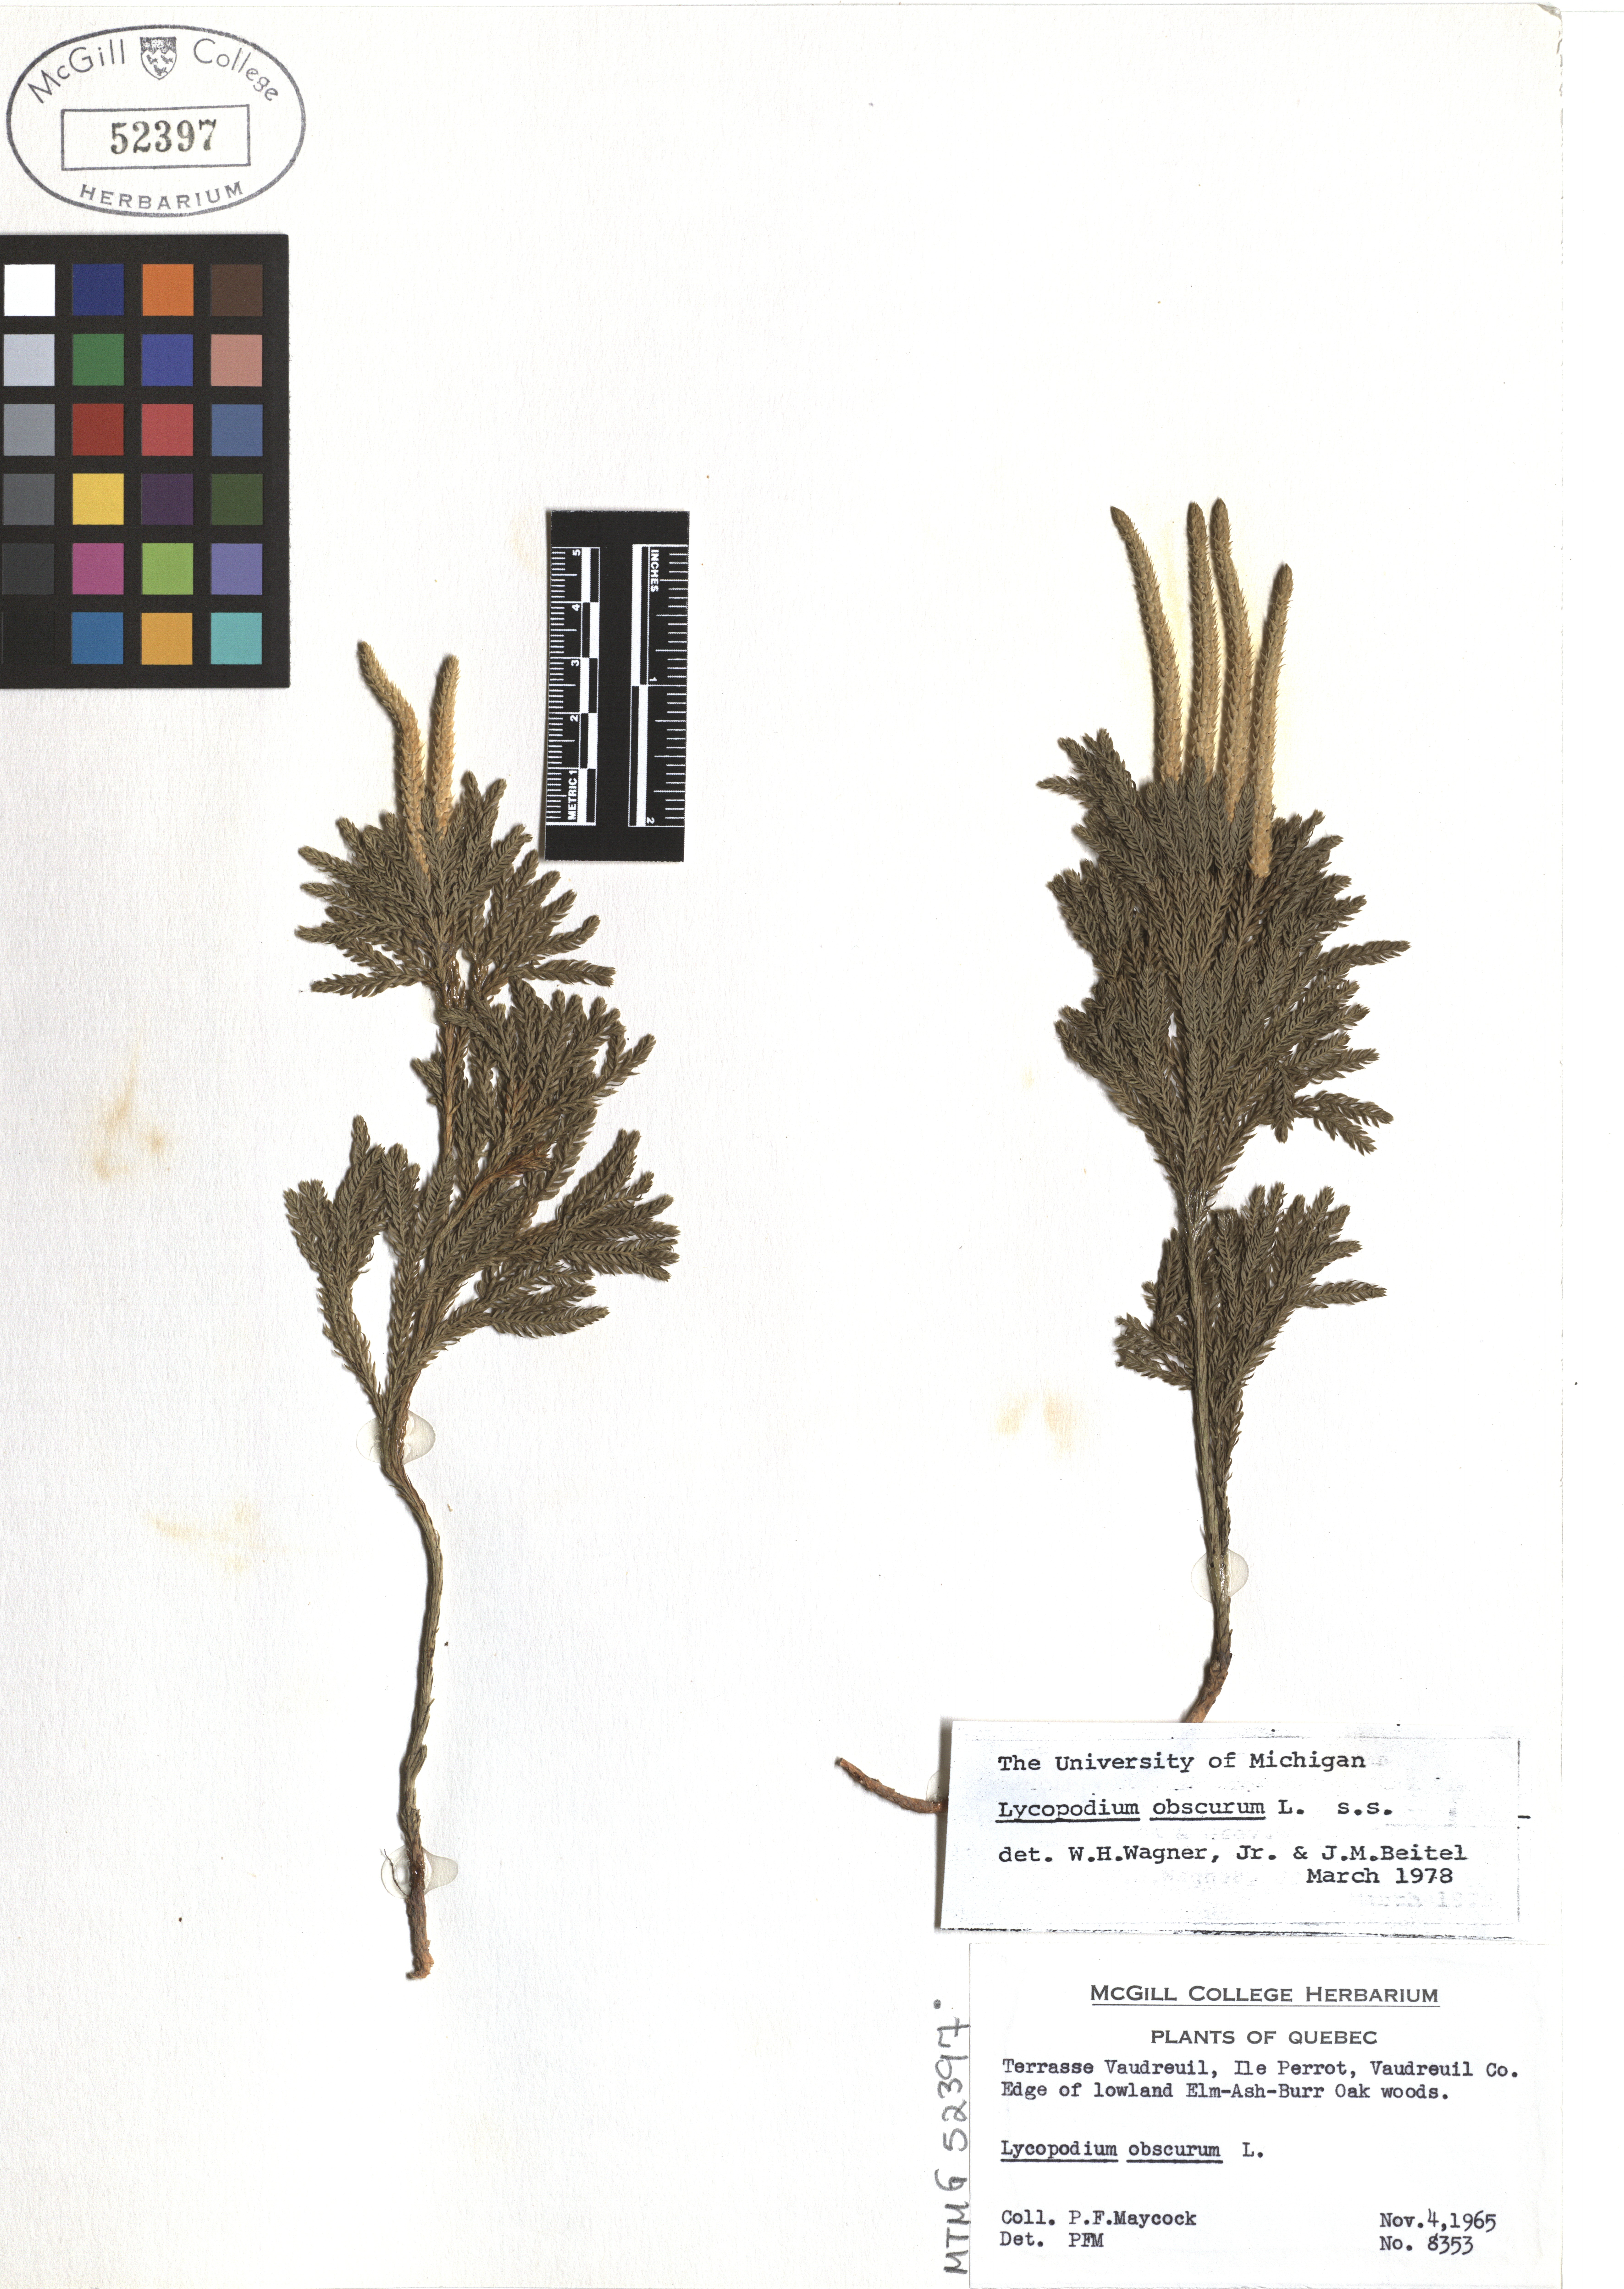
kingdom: Plantae
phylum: Tracheophyta
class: Lycopodiopsida
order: Lycopodiales
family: Lycopodiaceae
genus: Dendrolycopodium
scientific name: Dendrolycopodium obscurum
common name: Common ground-pine
